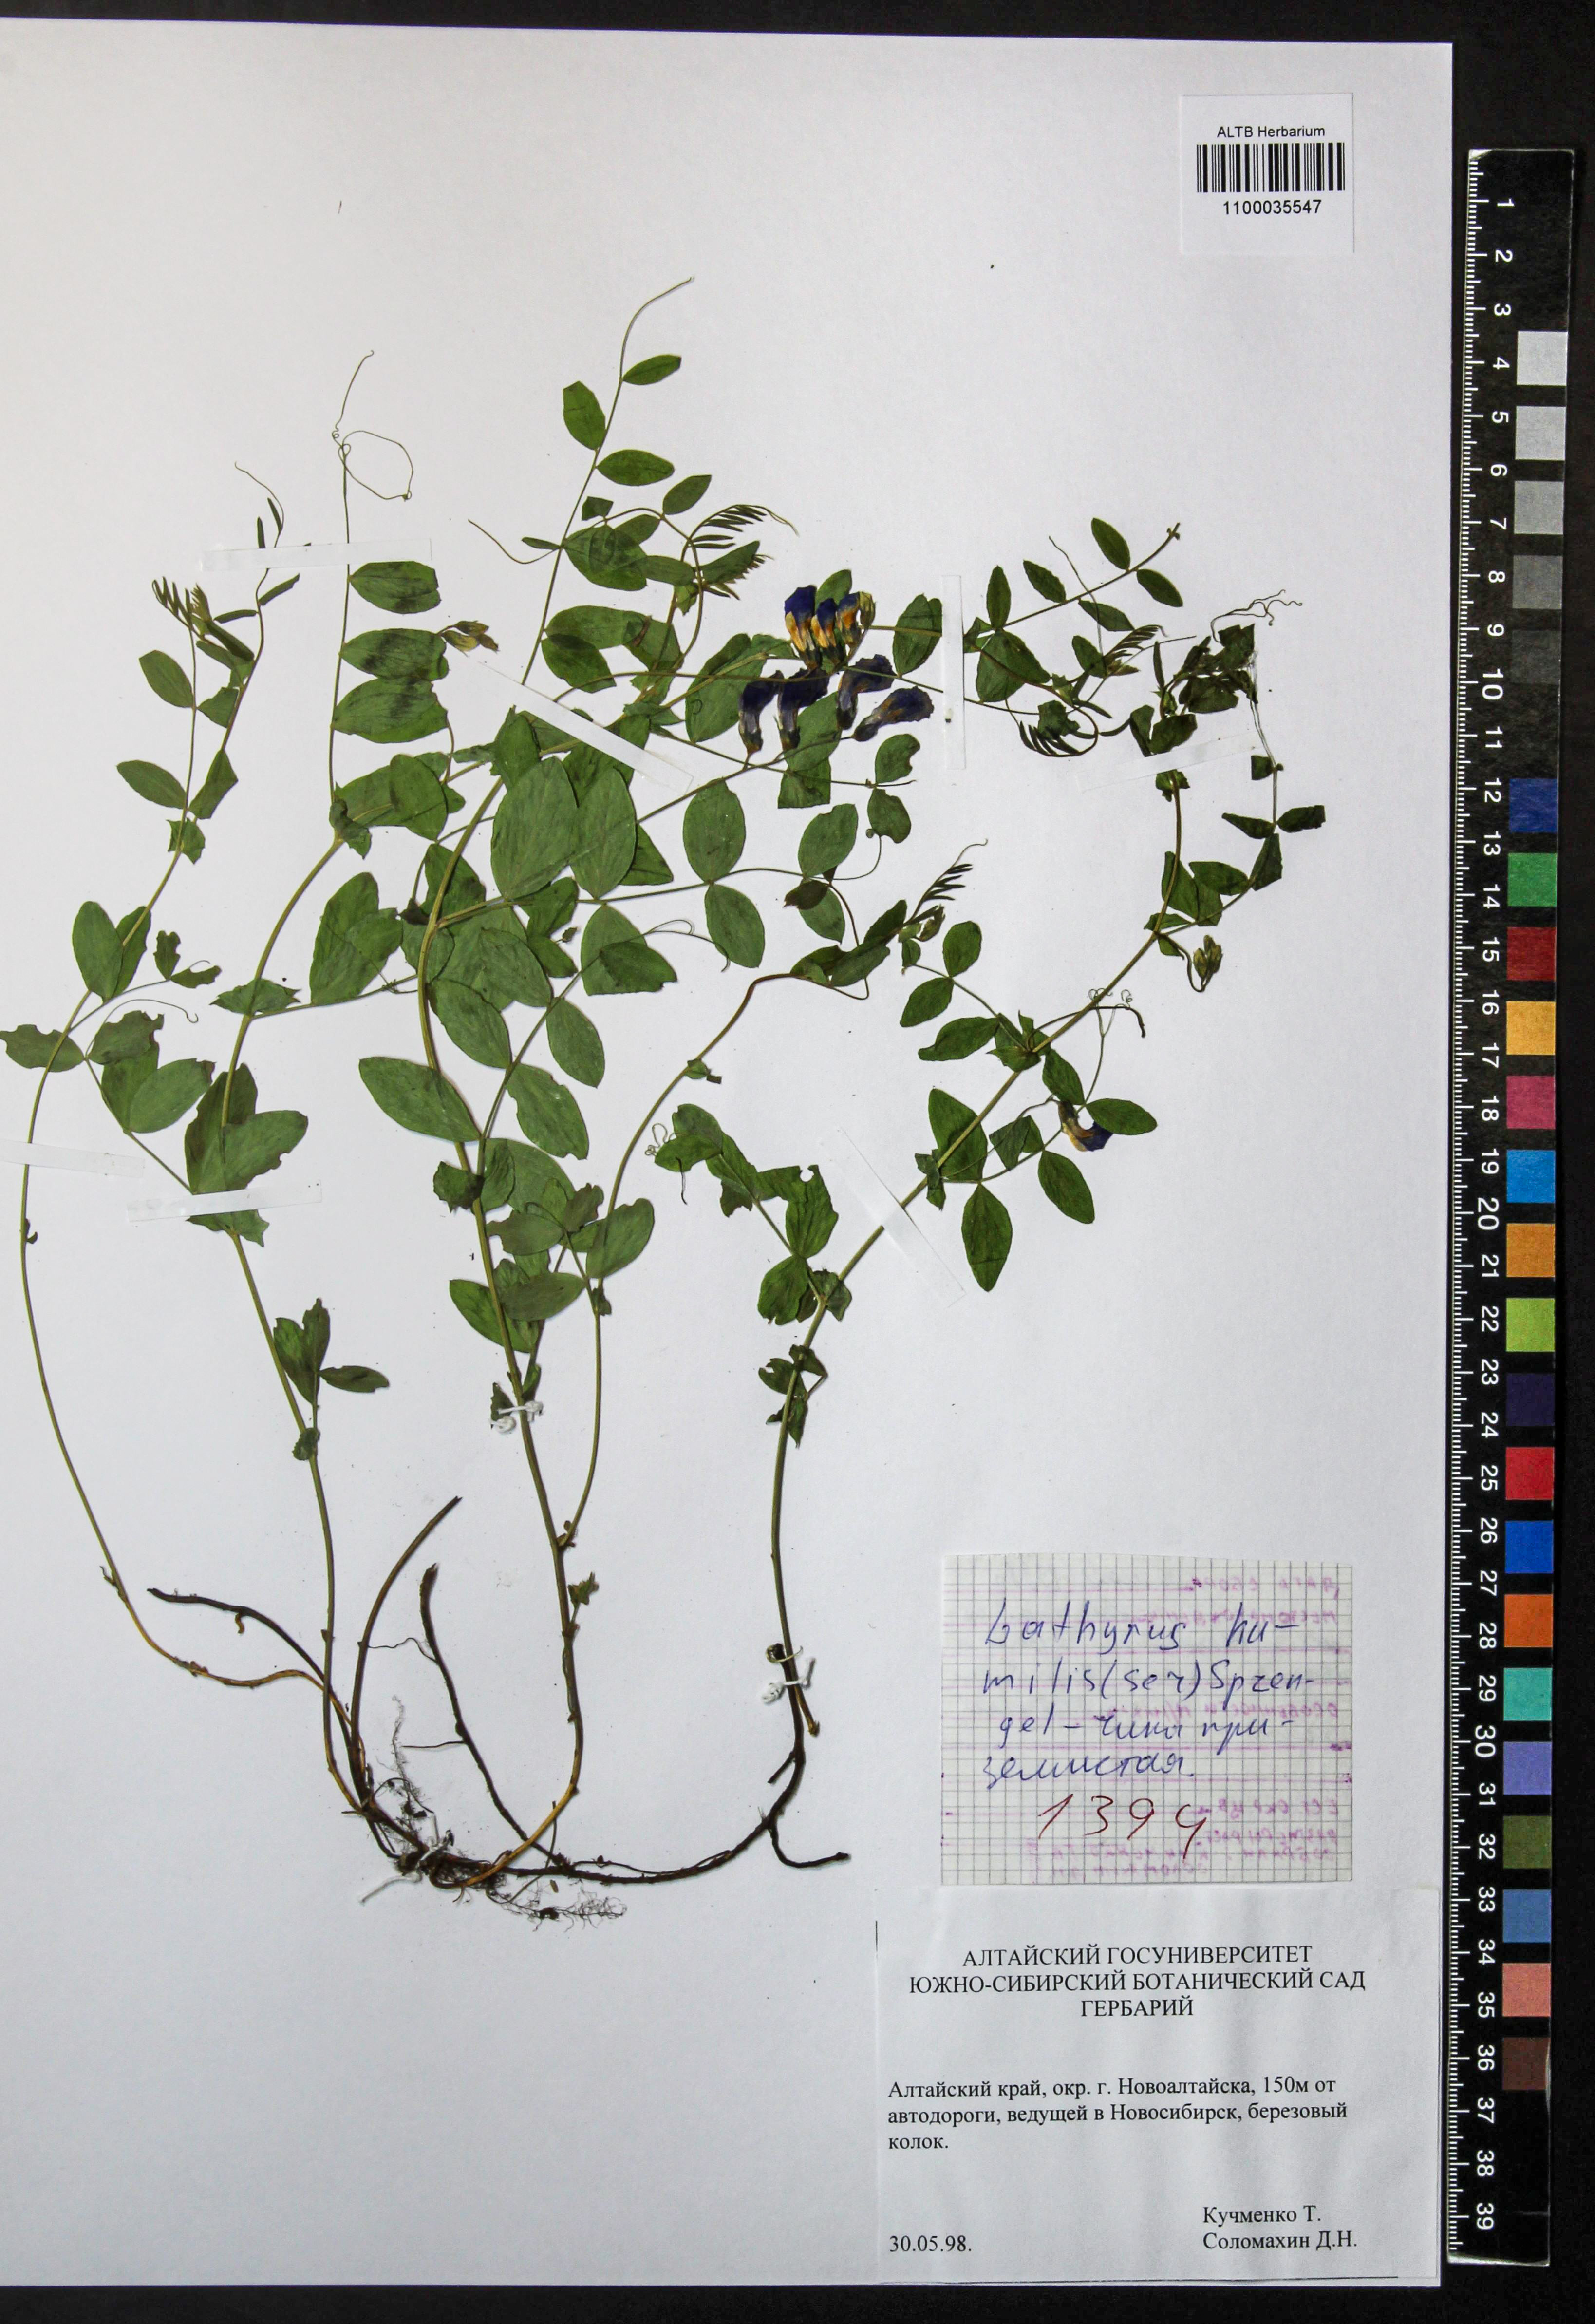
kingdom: Plantae
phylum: Tracheophyta
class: Magnoliopsida
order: Fabales
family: Fabaceae
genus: Lathyrus
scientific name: Lathyrus humilis
